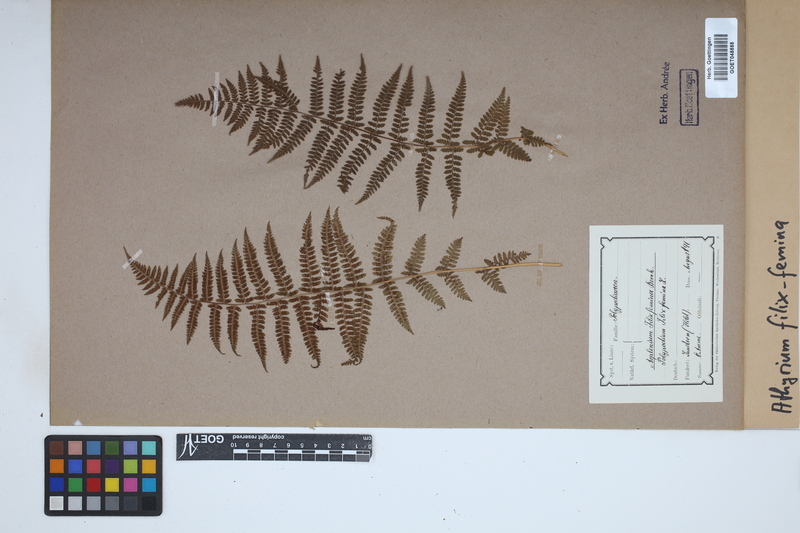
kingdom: Plantae
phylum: Tracheophyta
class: Polypodiopsida
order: Polypodiales
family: Athyriaceae
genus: Athyrium
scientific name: Athyrium filix-femina
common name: Lady fern
